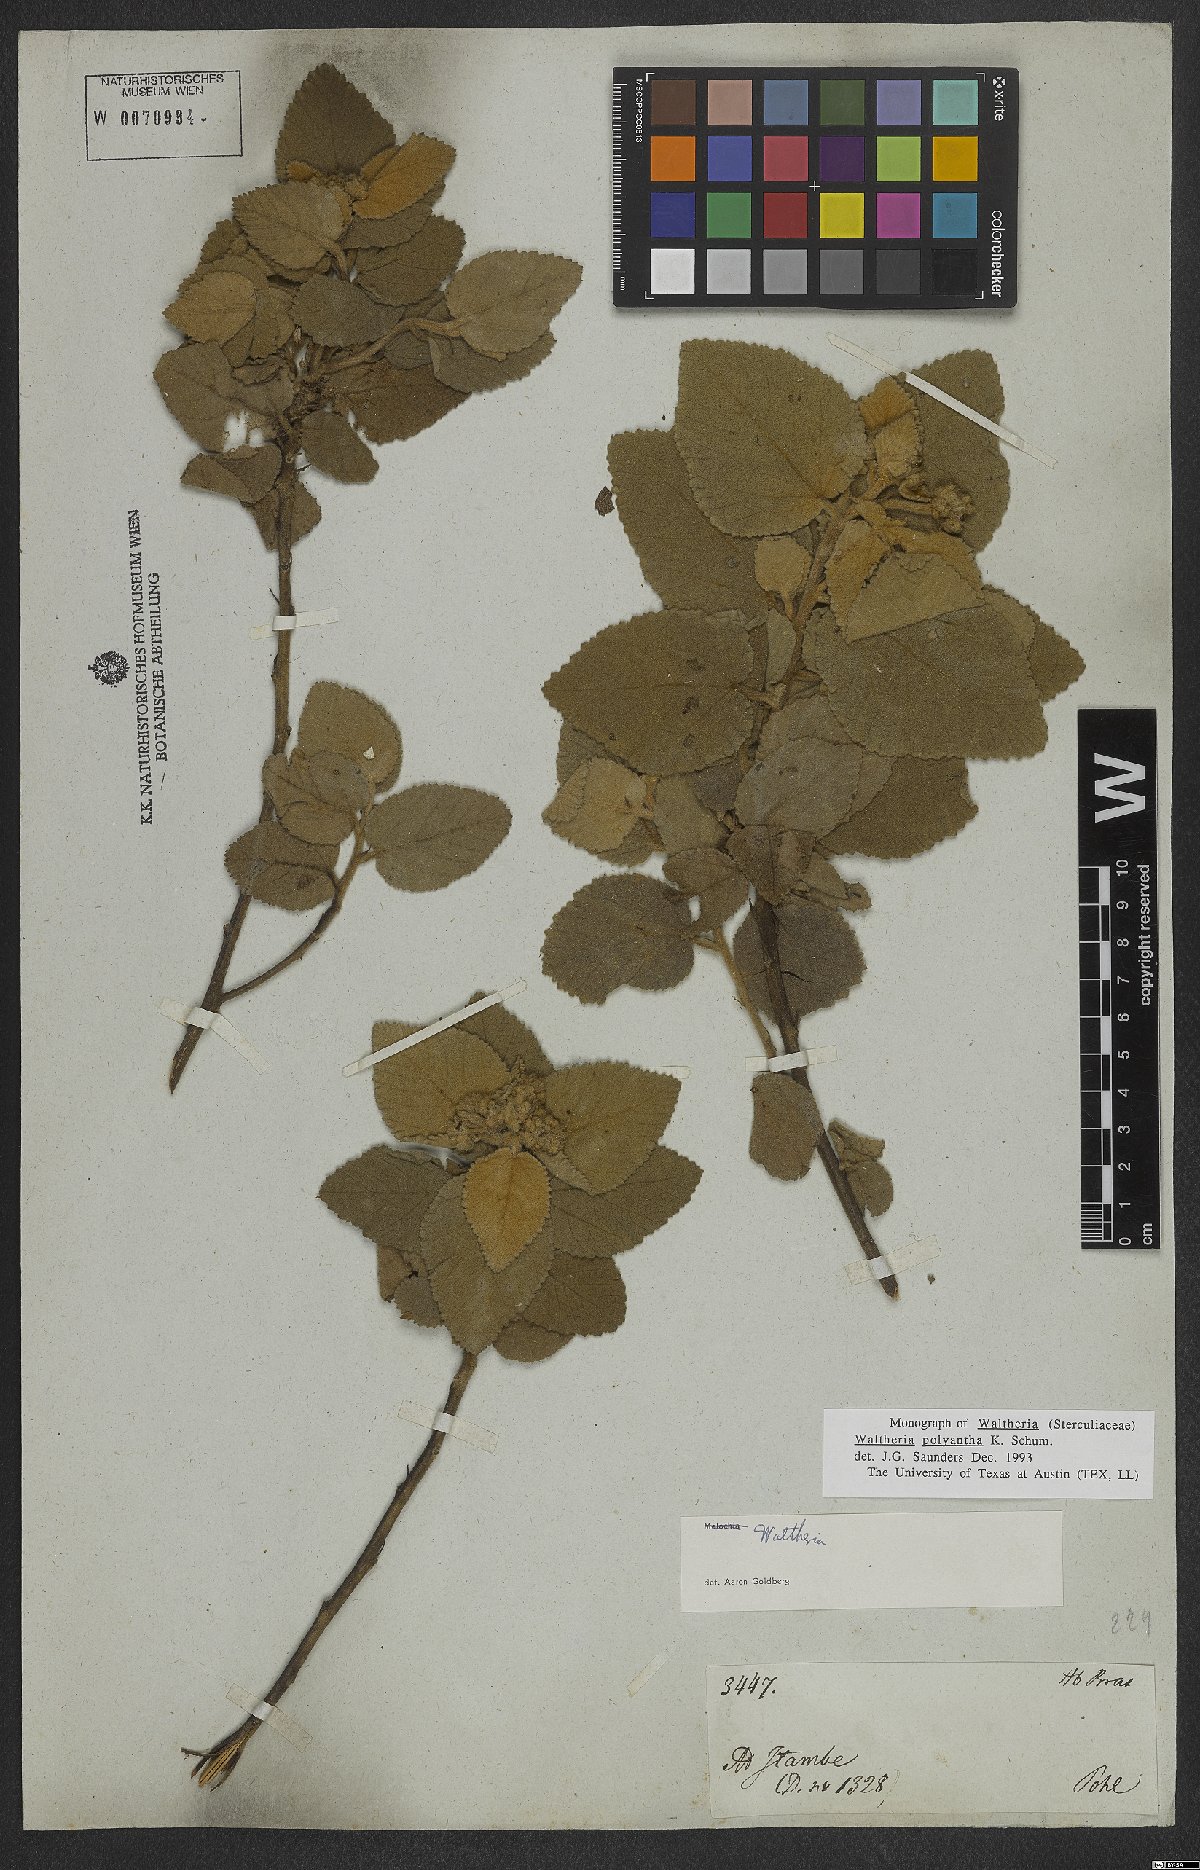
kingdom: Plantae
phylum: Tracheophyta
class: Magnoliopsida
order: Malvales
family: Malvaceae
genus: Waltheria
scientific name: Waltheria polyantha
